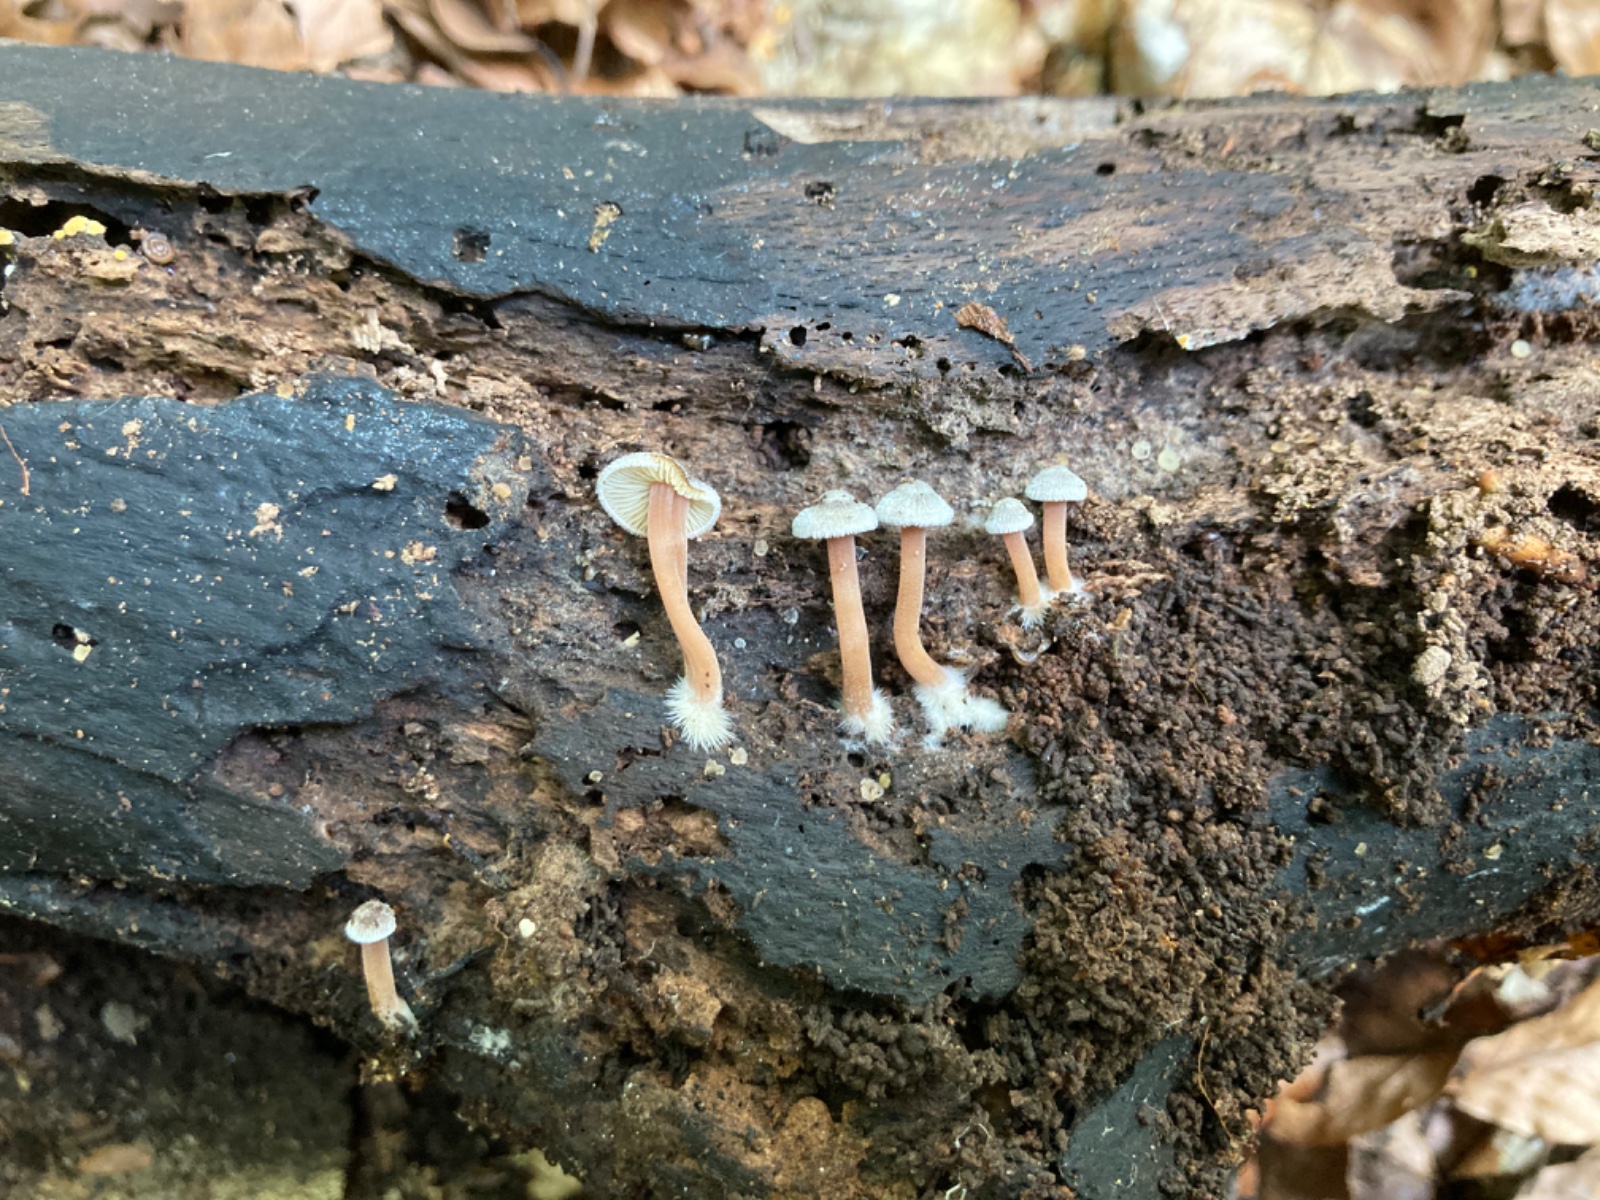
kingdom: Fungi
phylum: Basidiomycota
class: Agaricomycetes
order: Agaricales
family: Inocybaceae
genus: Inocybe
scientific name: Inocybe petiginosa
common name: liden trævlhat
